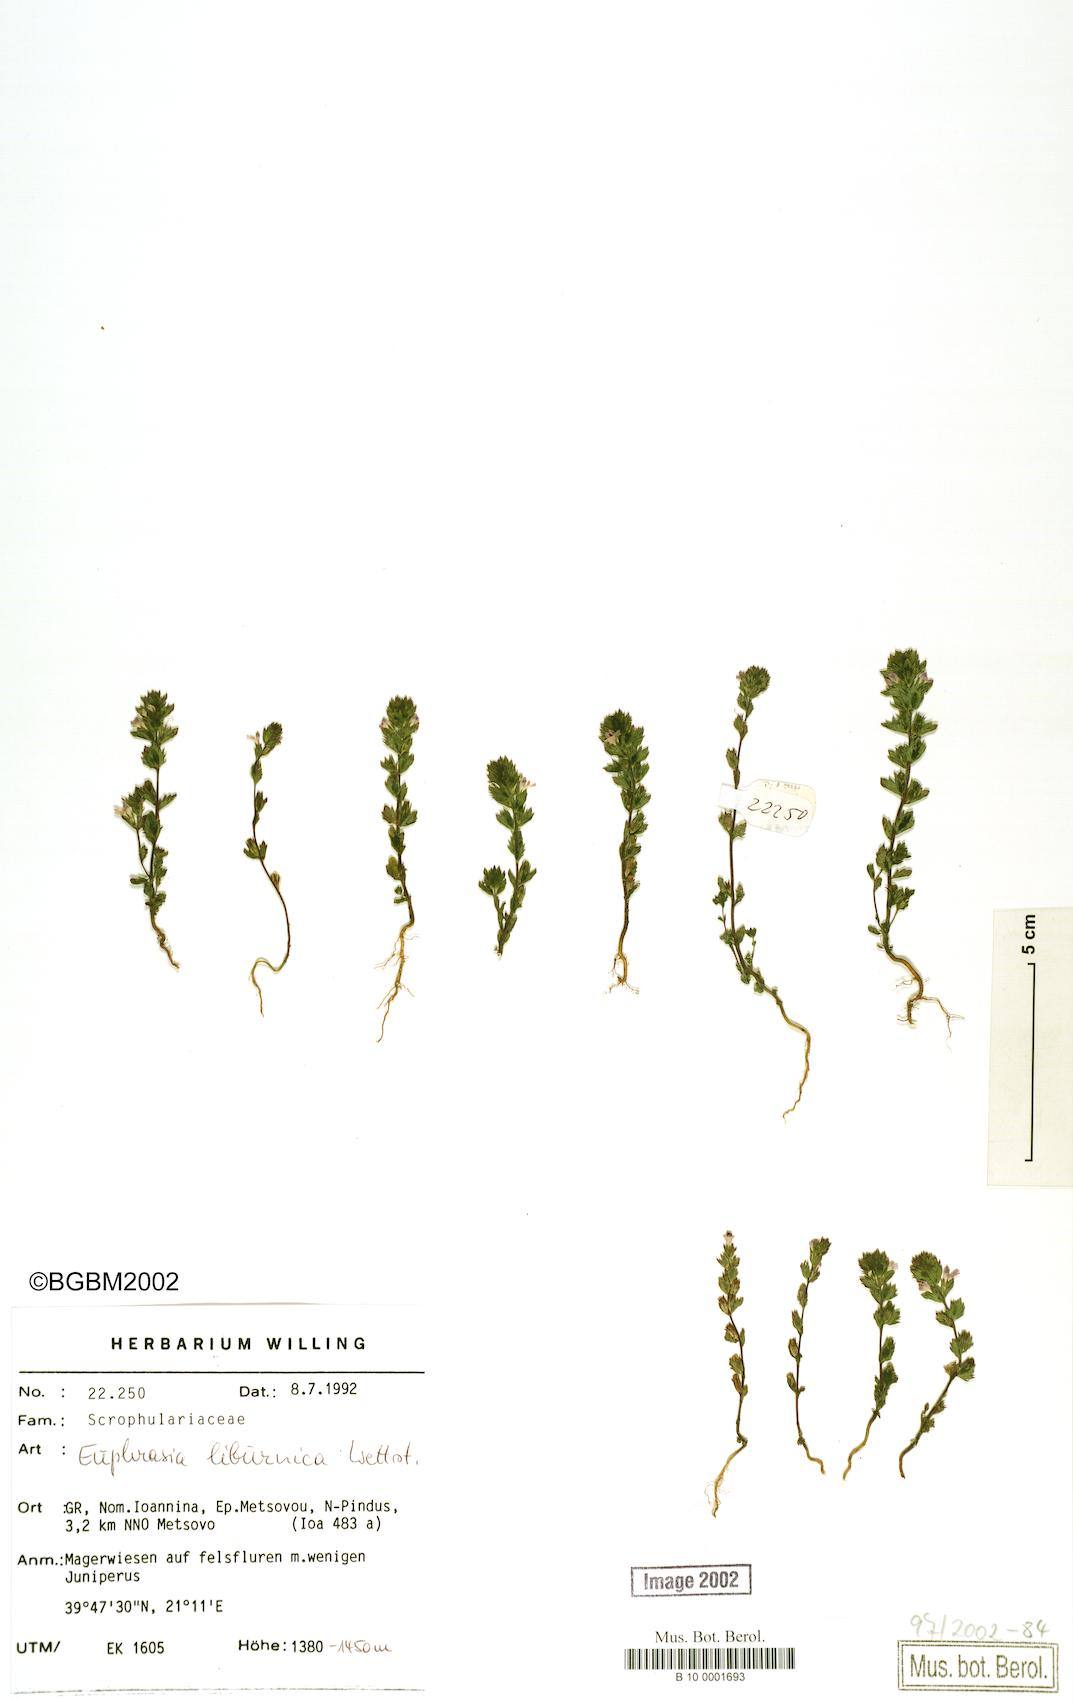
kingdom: Plantae
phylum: Tracheophyta
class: Magnoliopsida
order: Lamiales
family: Orobanchaceae
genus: Euphrasia
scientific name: Euphrasia liburnica
